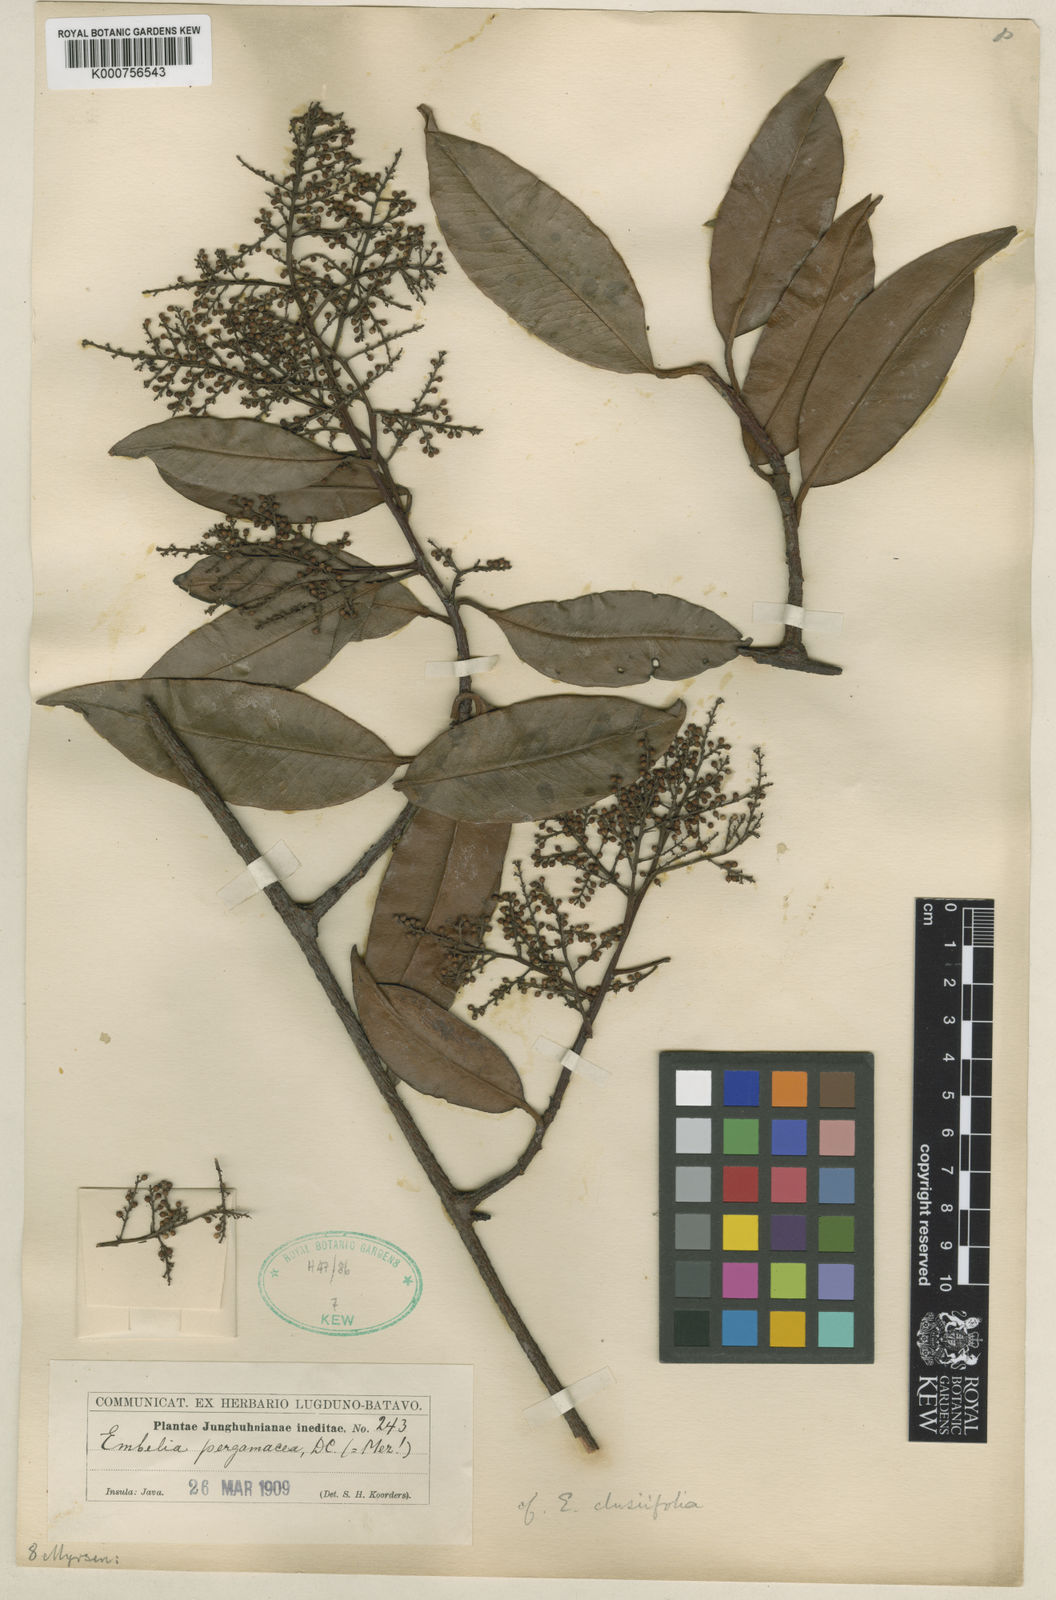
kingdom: Plantae
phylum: Tracheophyta
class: Magnoliopsida
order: Ericales
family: Primulaceae
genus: Embelia
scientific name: Embelia clusiifolia
